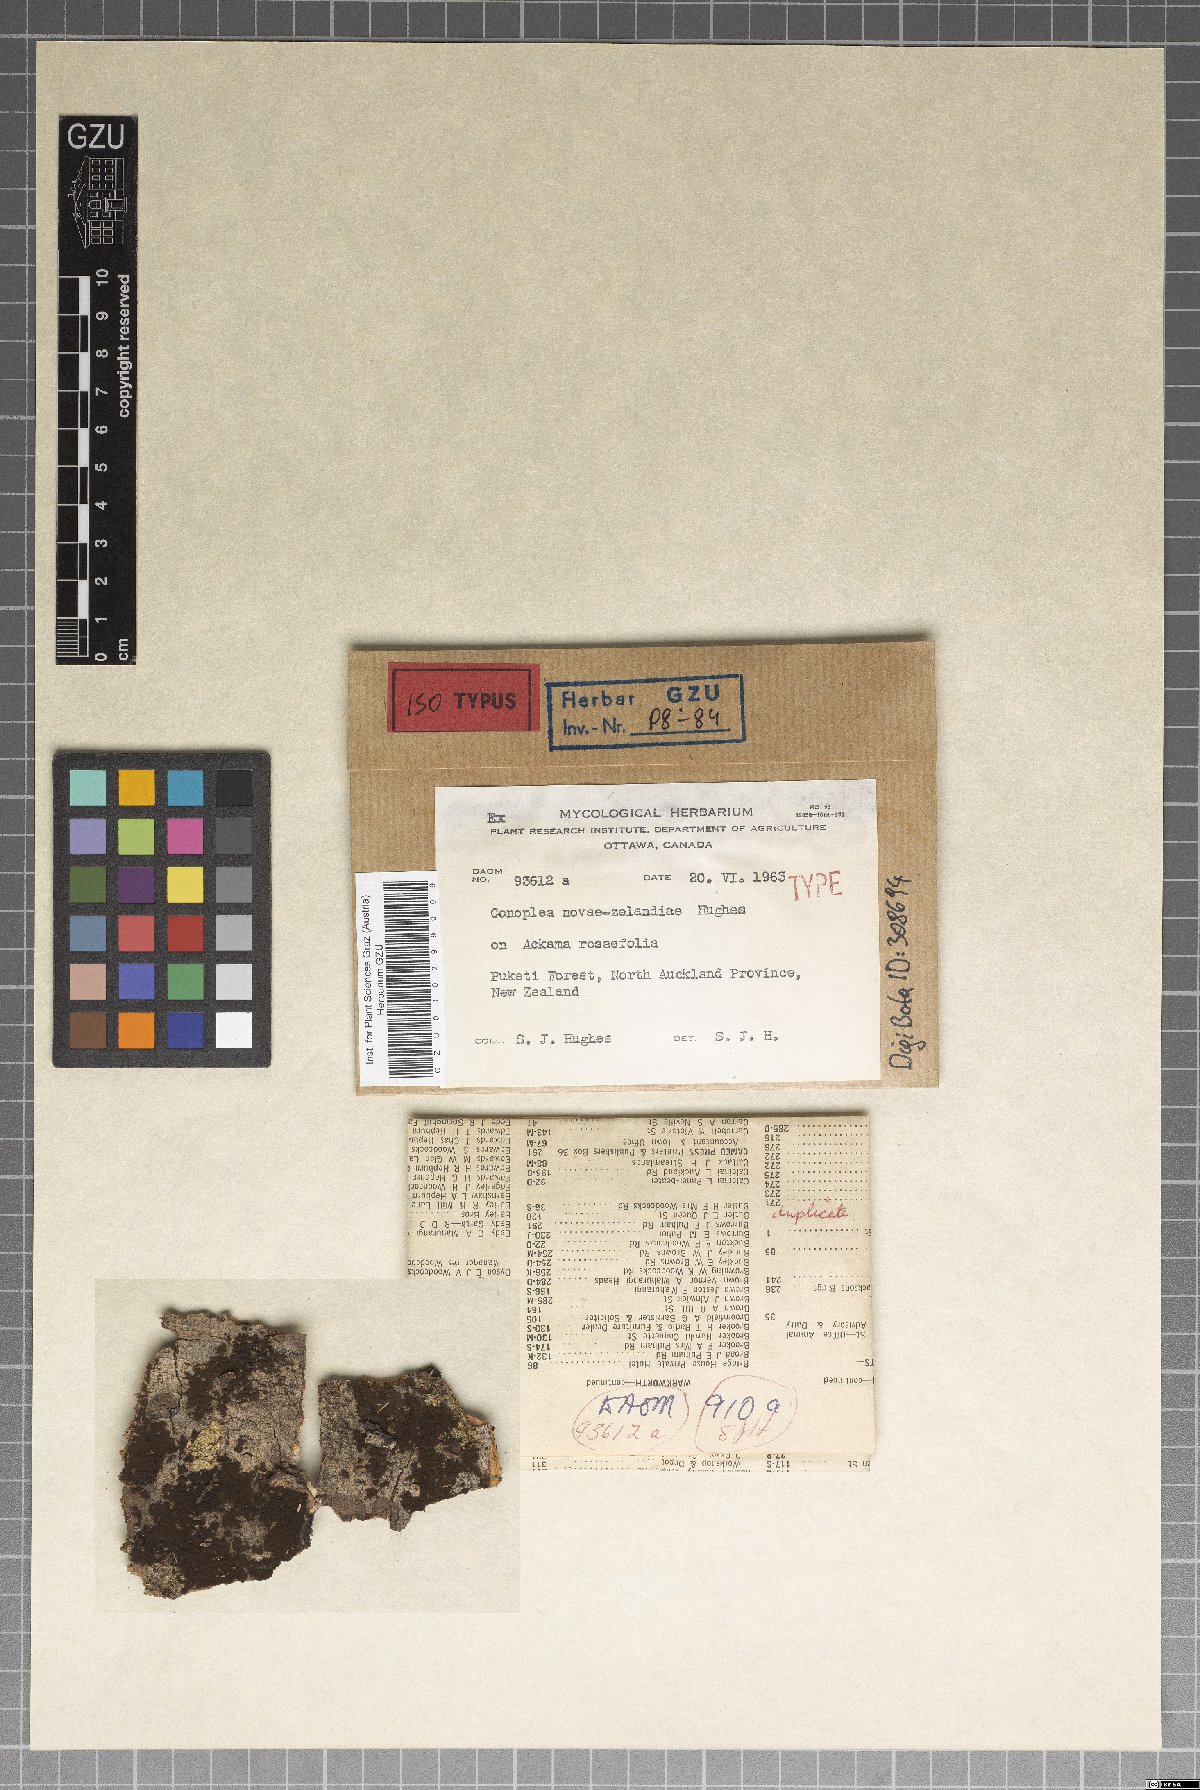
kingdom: Fungi
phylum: Ascomycota
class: Pezizomycetes
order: Pezizales
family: Sarcosomataceae
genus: Conoplea
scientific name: Conoplea novae-zelandiae
